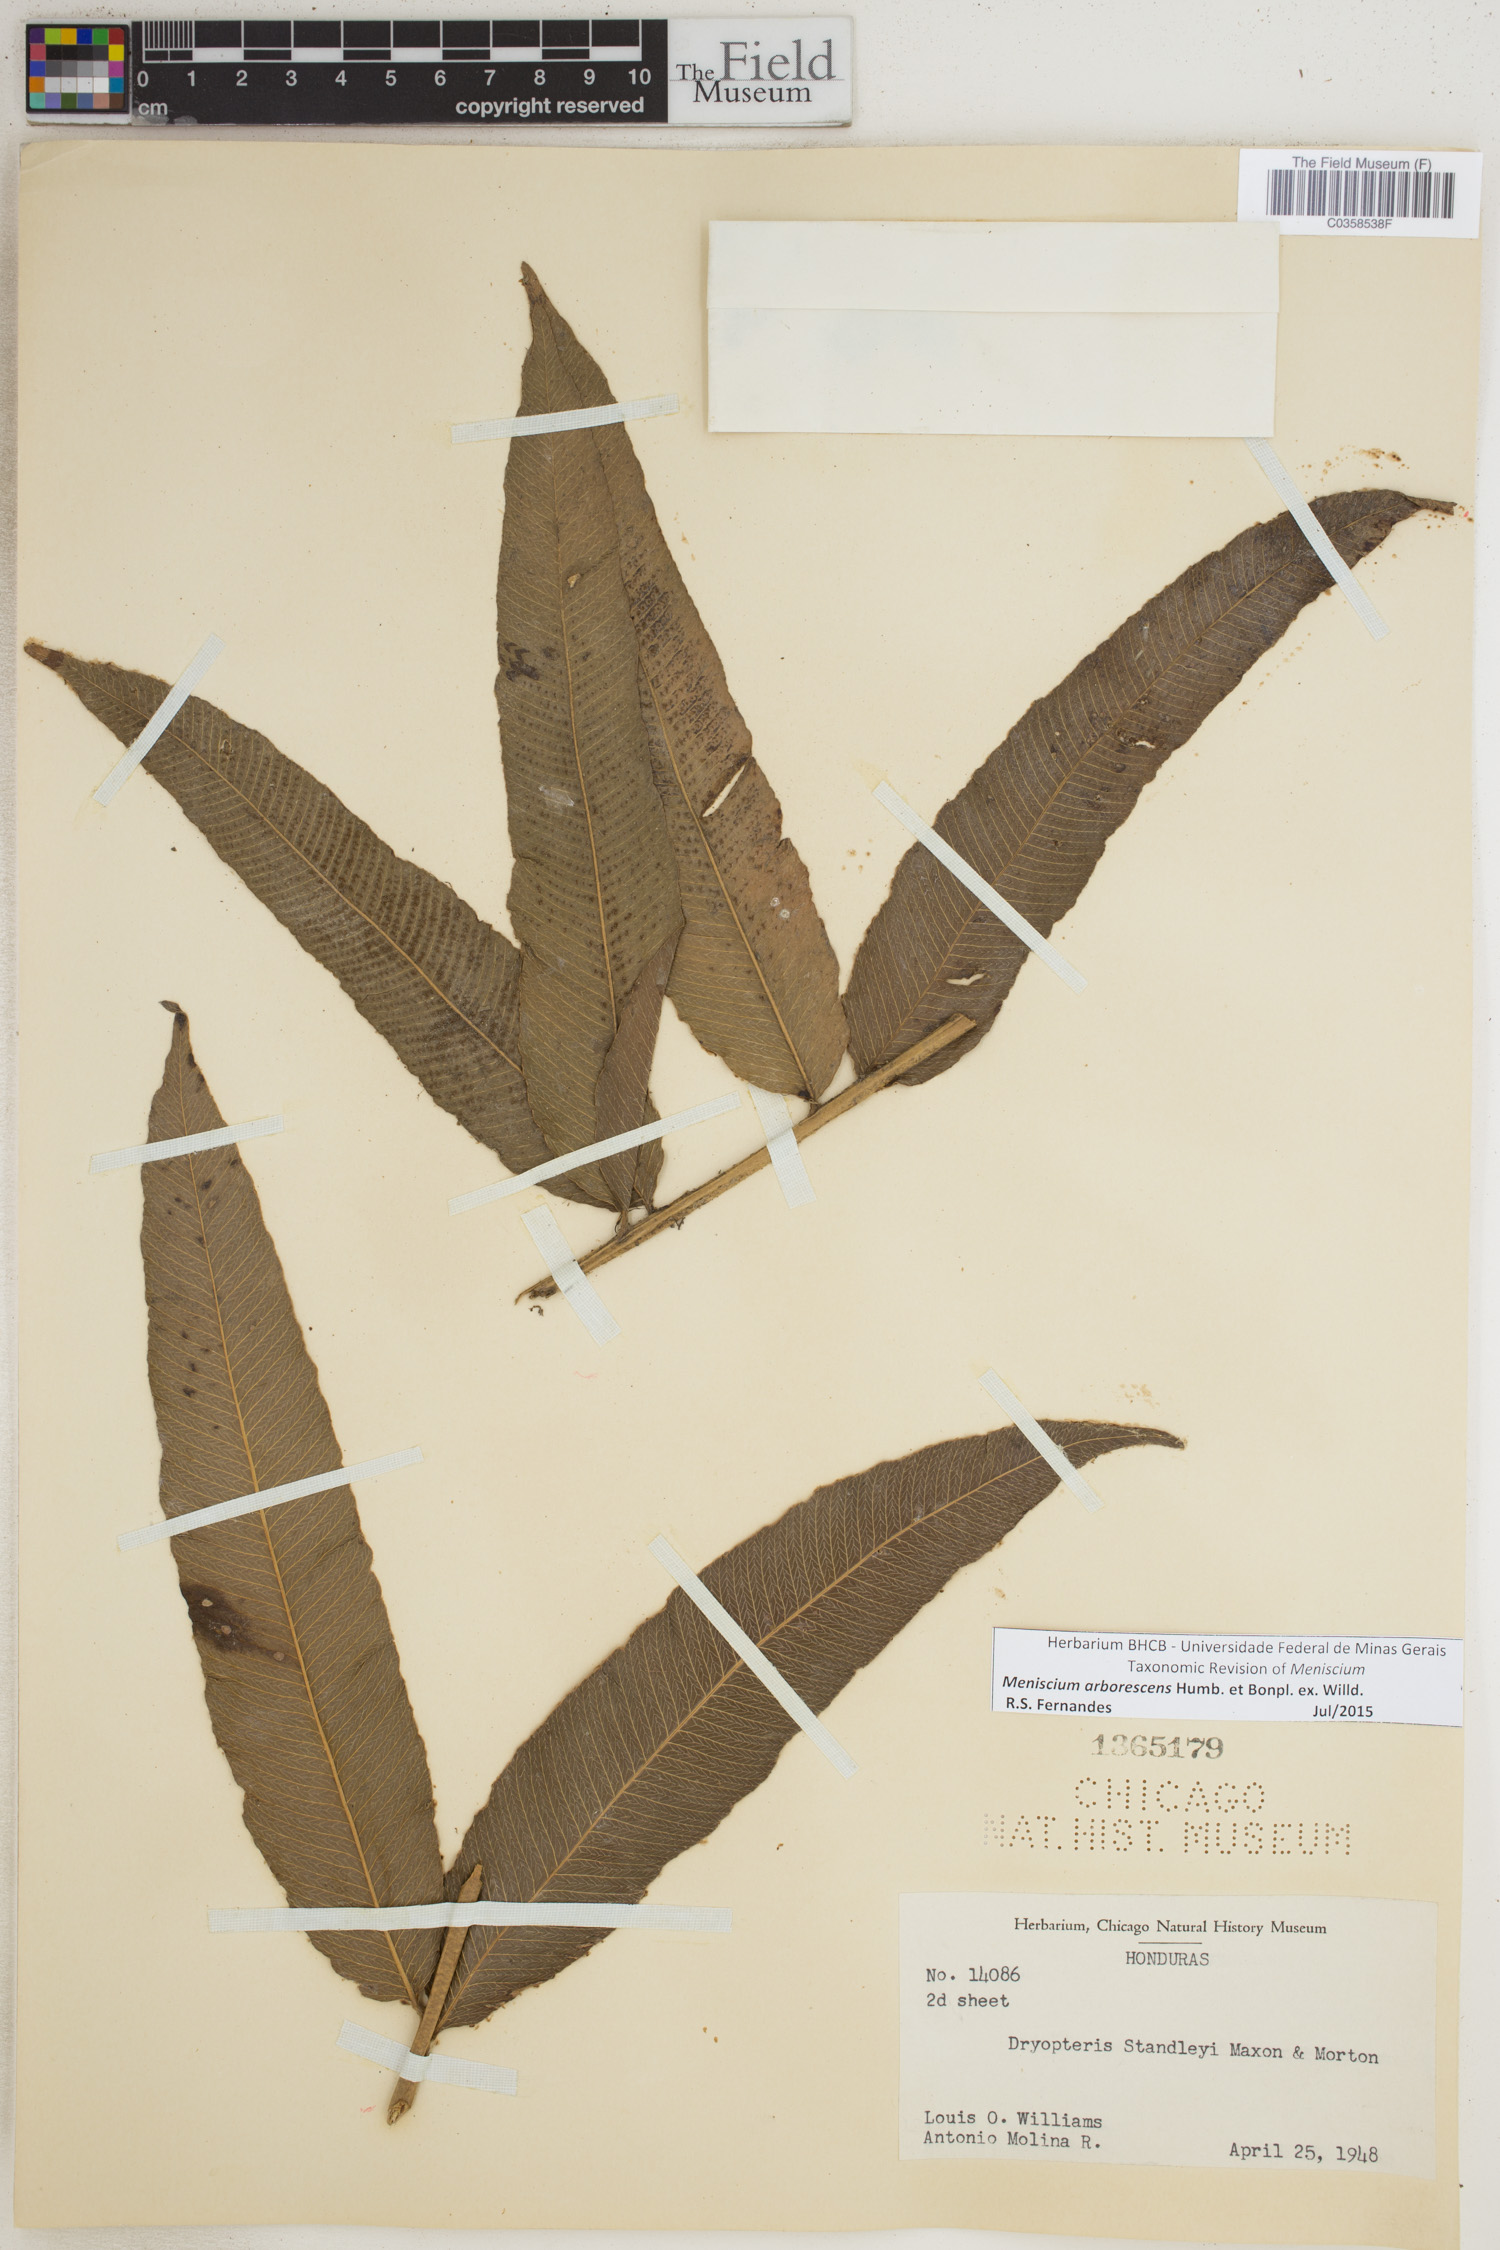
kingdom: Plantae
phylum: Tracheophyta
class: Polypodiopsida
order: Polypodiales
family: Thelypteridaceae
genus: Meniscium
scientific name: Meniscium arborescens
